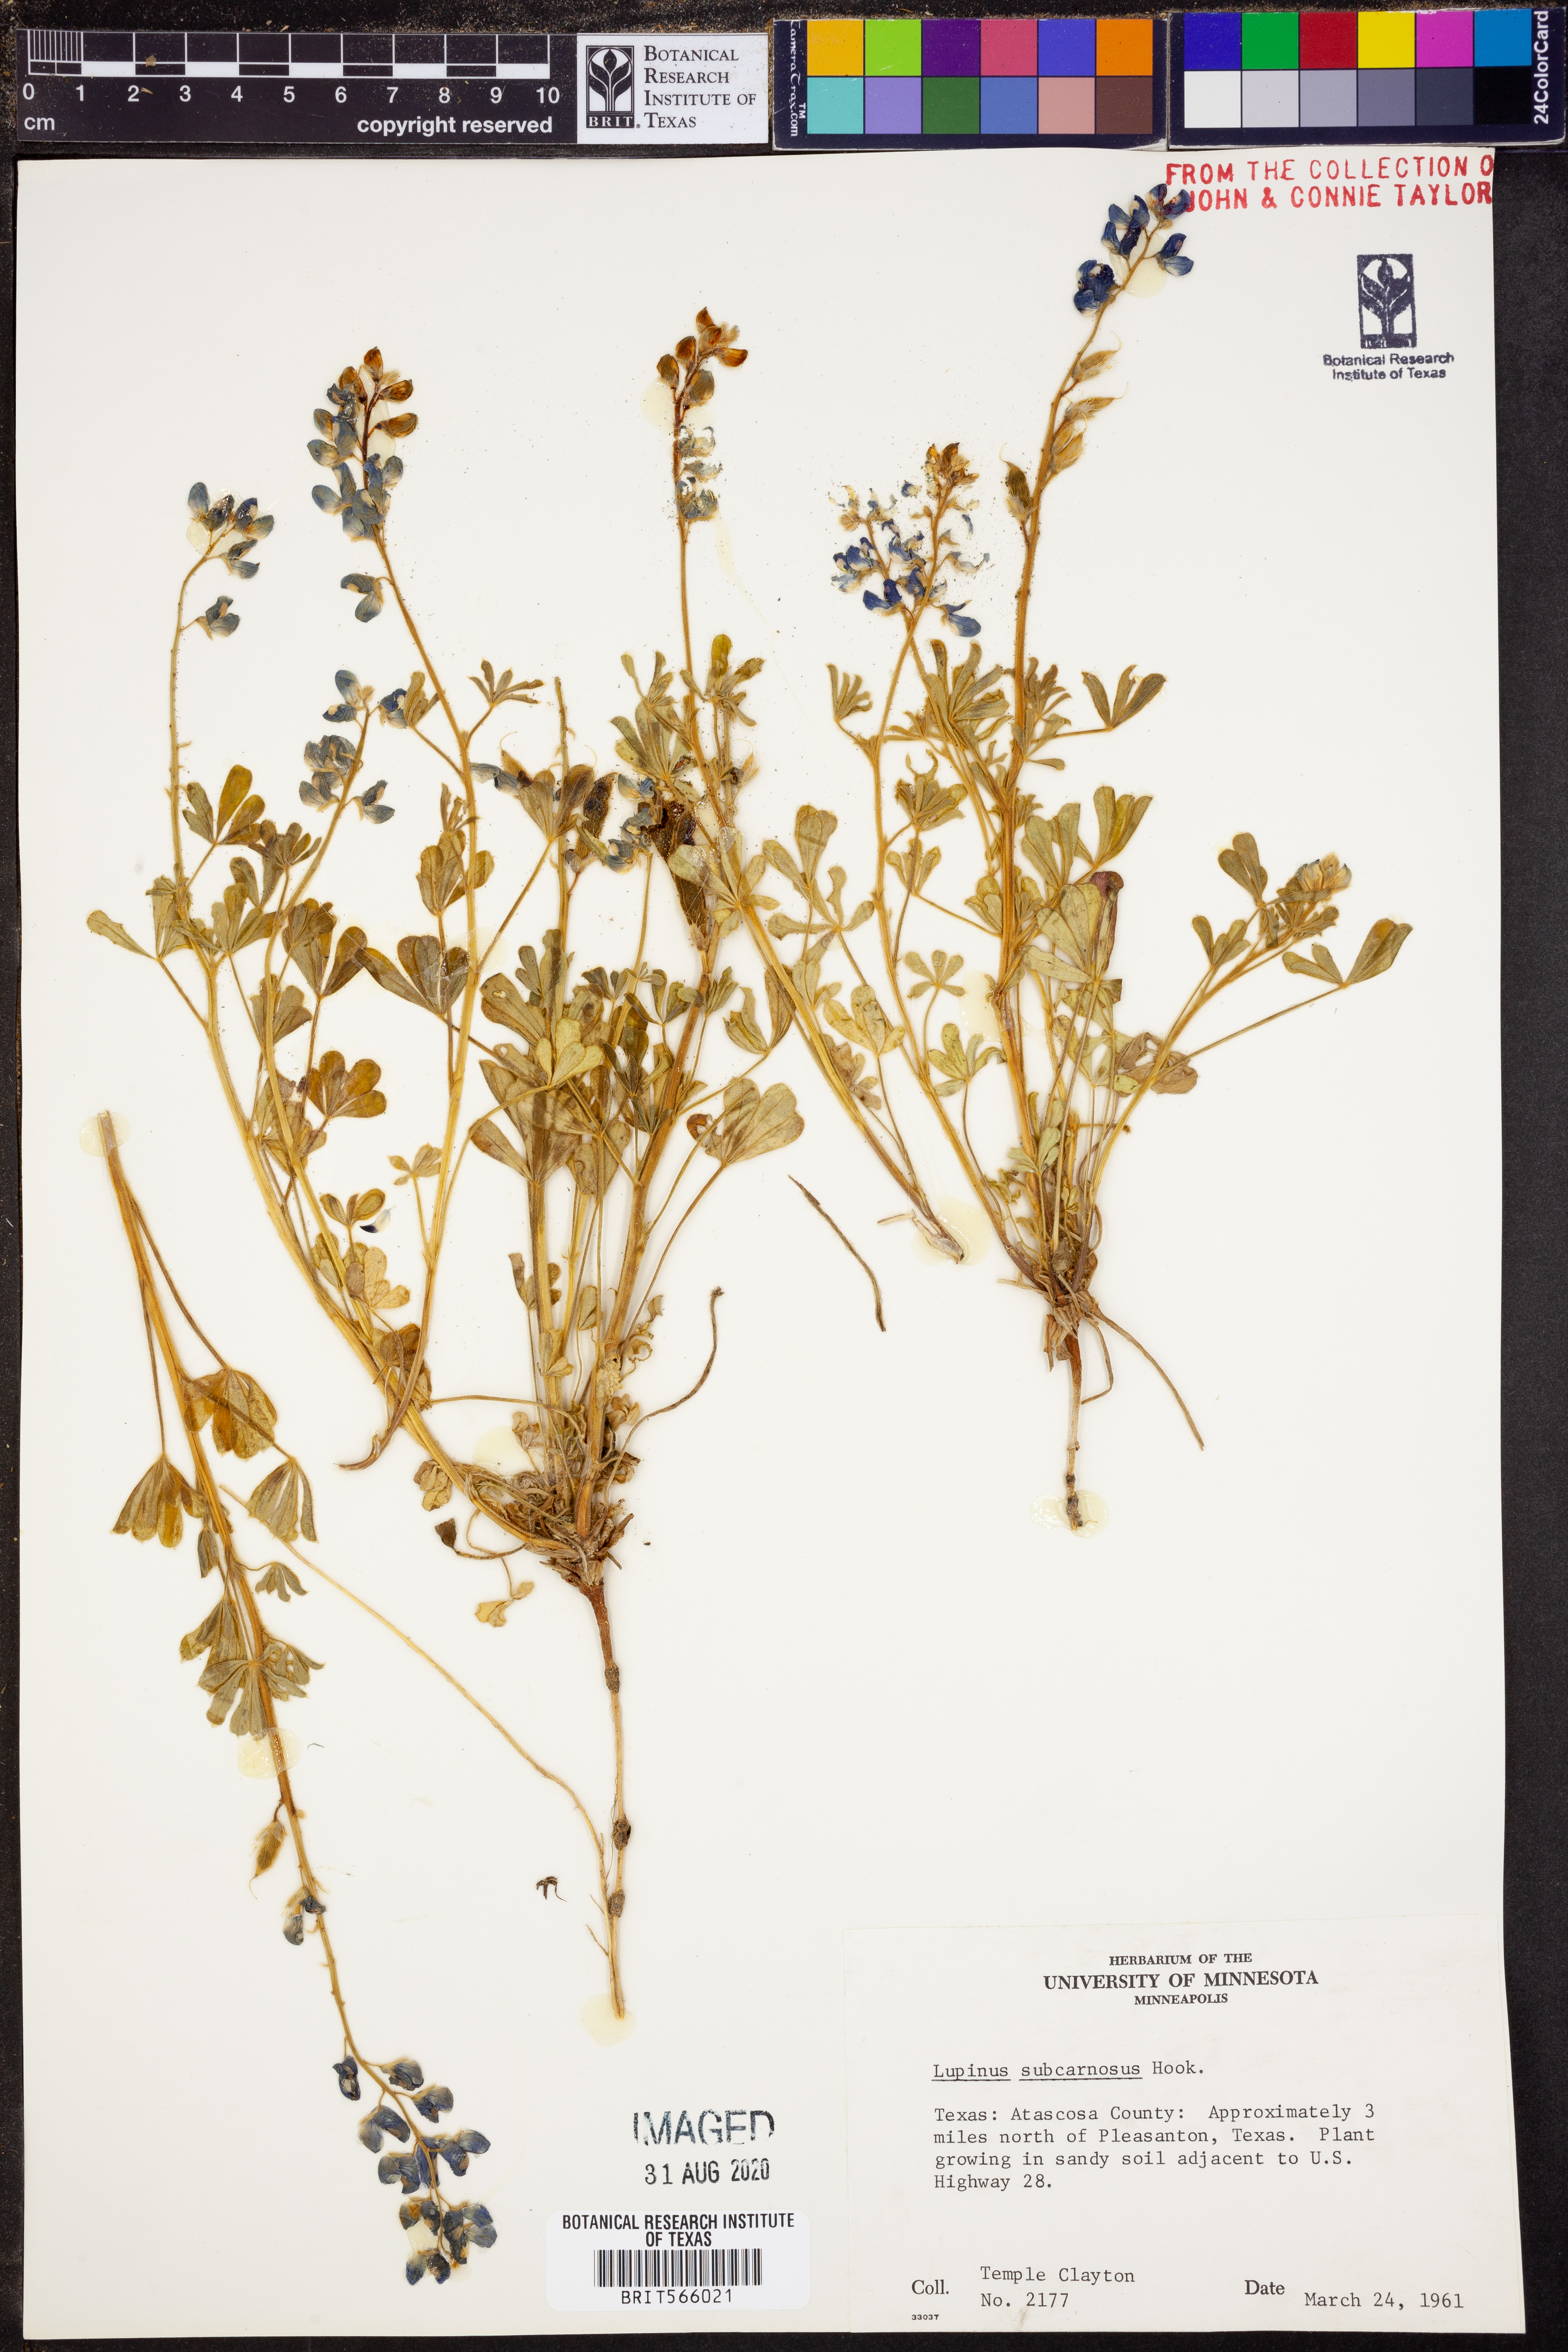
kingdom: Plantae
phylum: Tracheophyta
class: Magnoliopsida
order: Fabales
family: Fabaceae
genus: Lupinus
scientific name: Lupinus subcarnosus
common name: Texas bluebonnet
